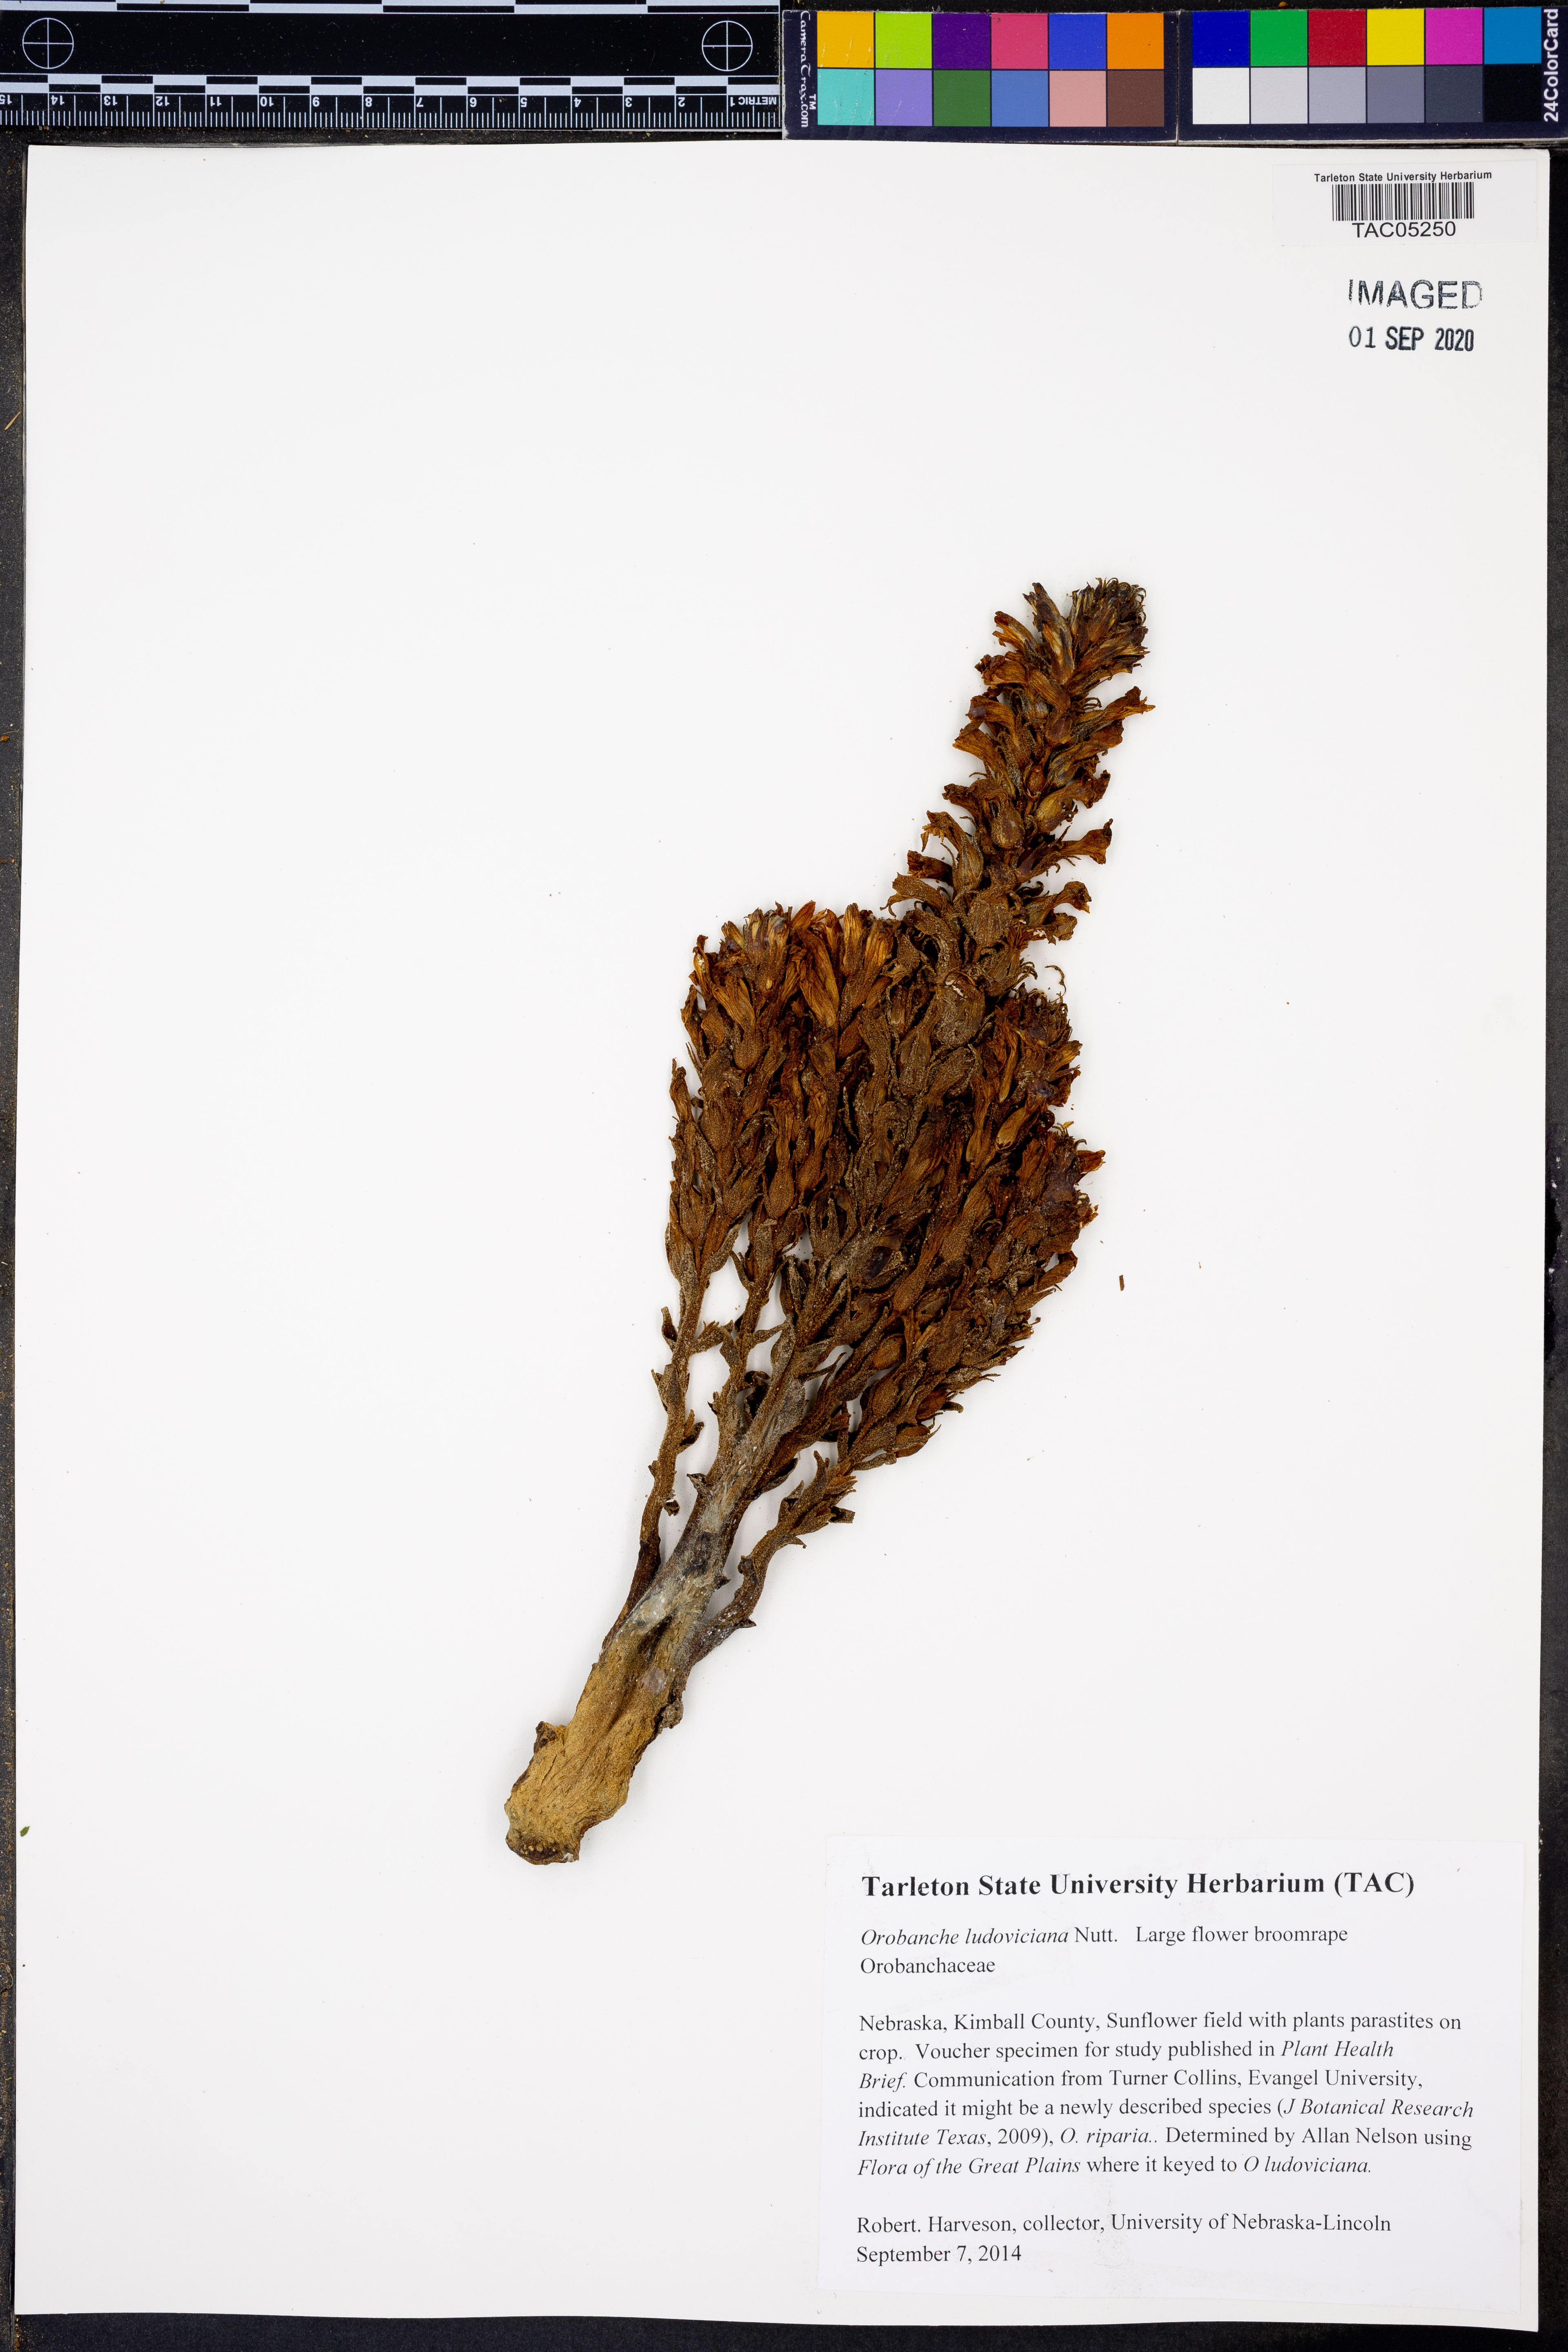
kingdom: Plantae
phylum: Tracheophyta
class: Magnoliopsida
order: Lamiales
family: Orobanchaceae
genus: Aphyllon
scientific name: Aphyllon ludovicianum
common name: Louisiana broomrape
